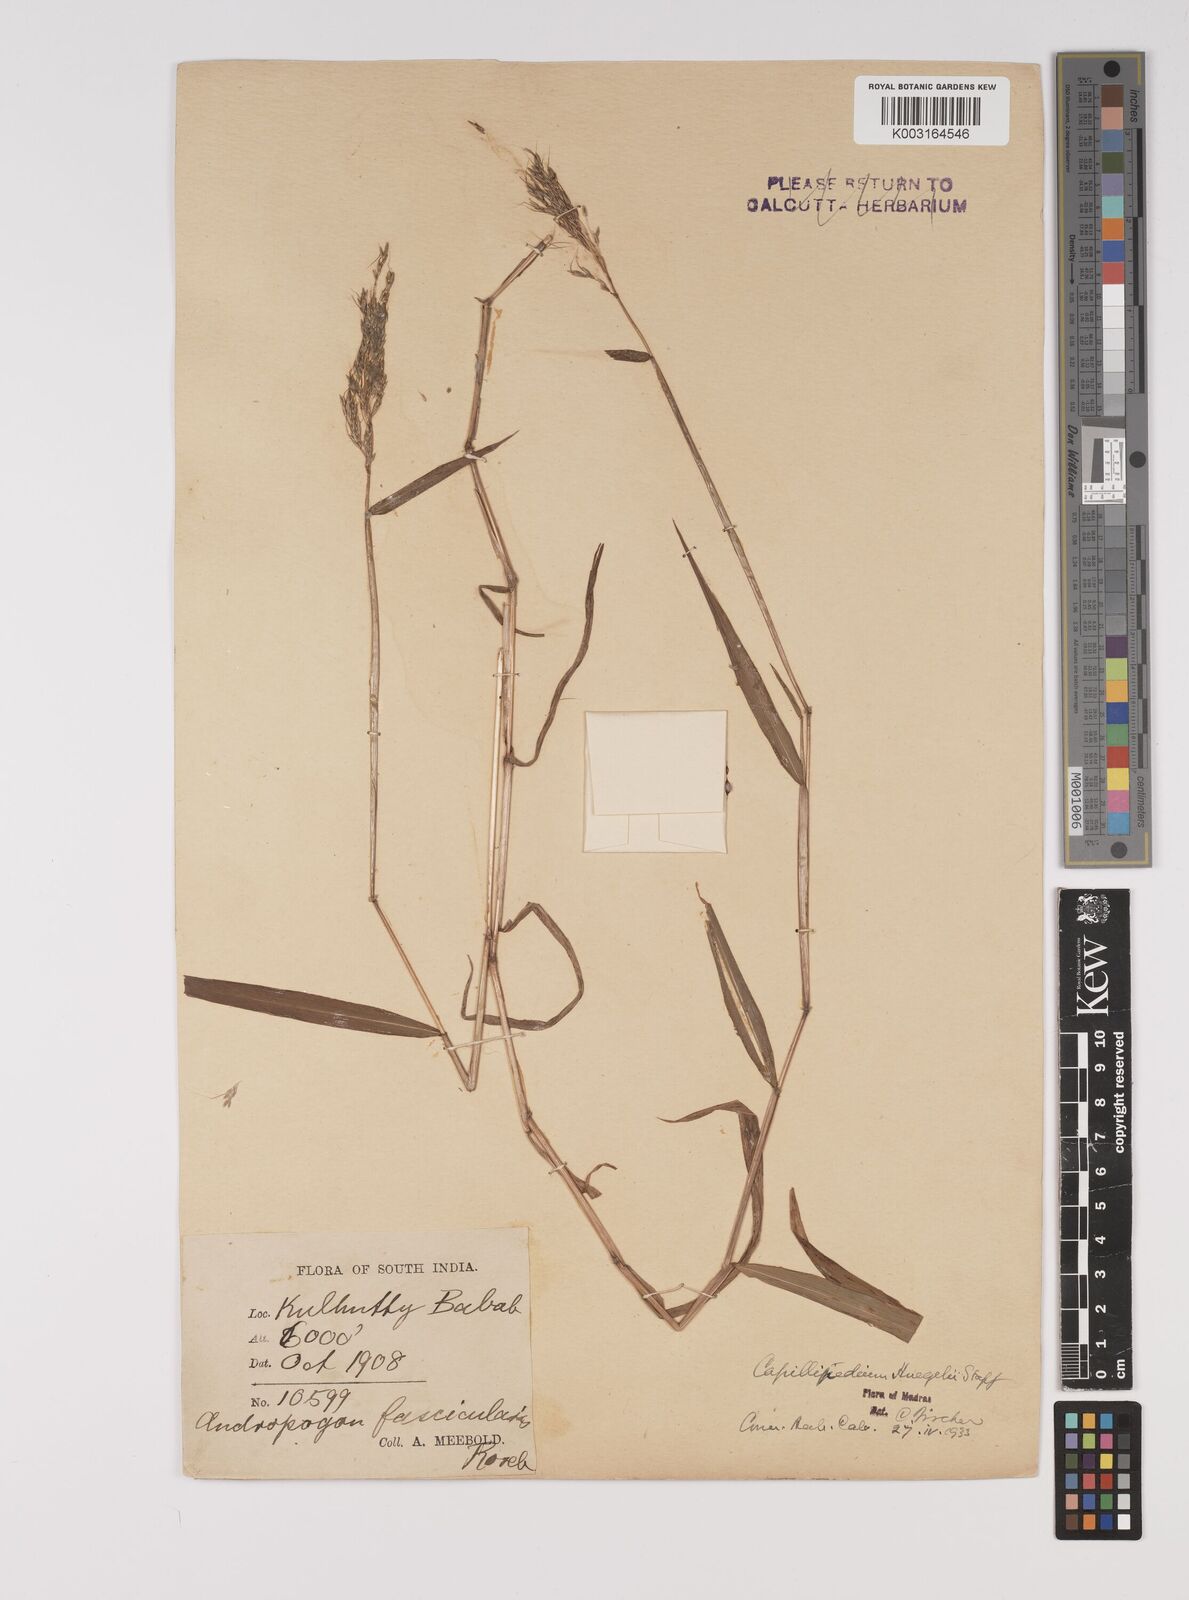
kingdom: Plantae
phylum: Tracheophyta
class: Liliopsida
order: Poales
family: Poaceae
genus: Capillipedium
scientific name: Capillipedium huegelii
